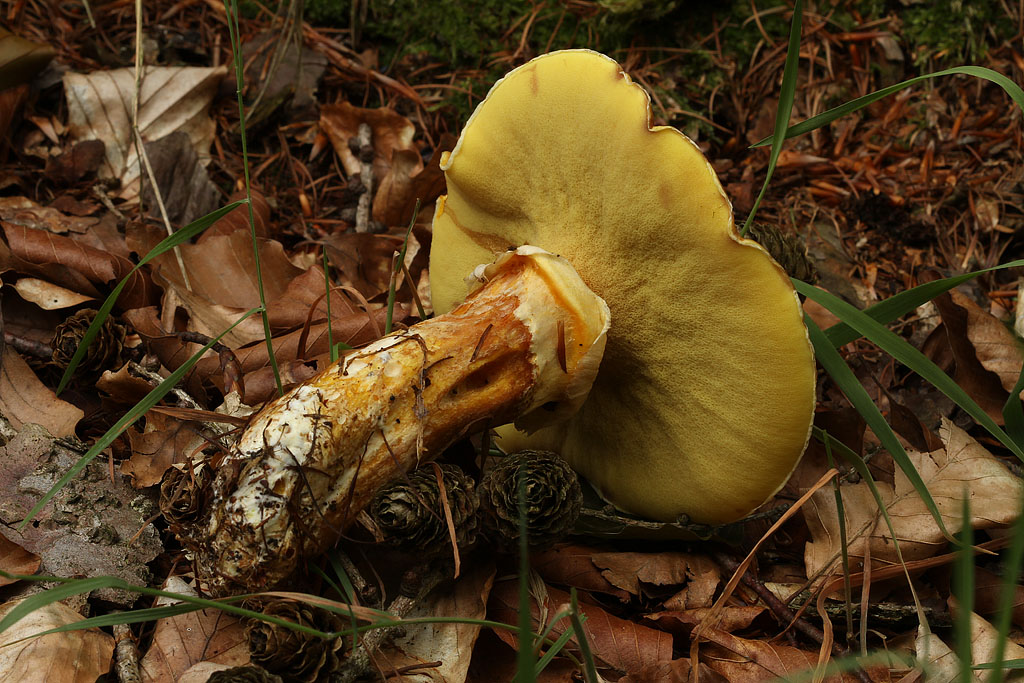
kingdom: Fungi
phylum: Basidiomycota
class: Agaricomycetes
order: Boletales
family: Suillaceae
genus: Suillus
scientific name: Suillus grevillei
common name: lærke-slimrørhat
